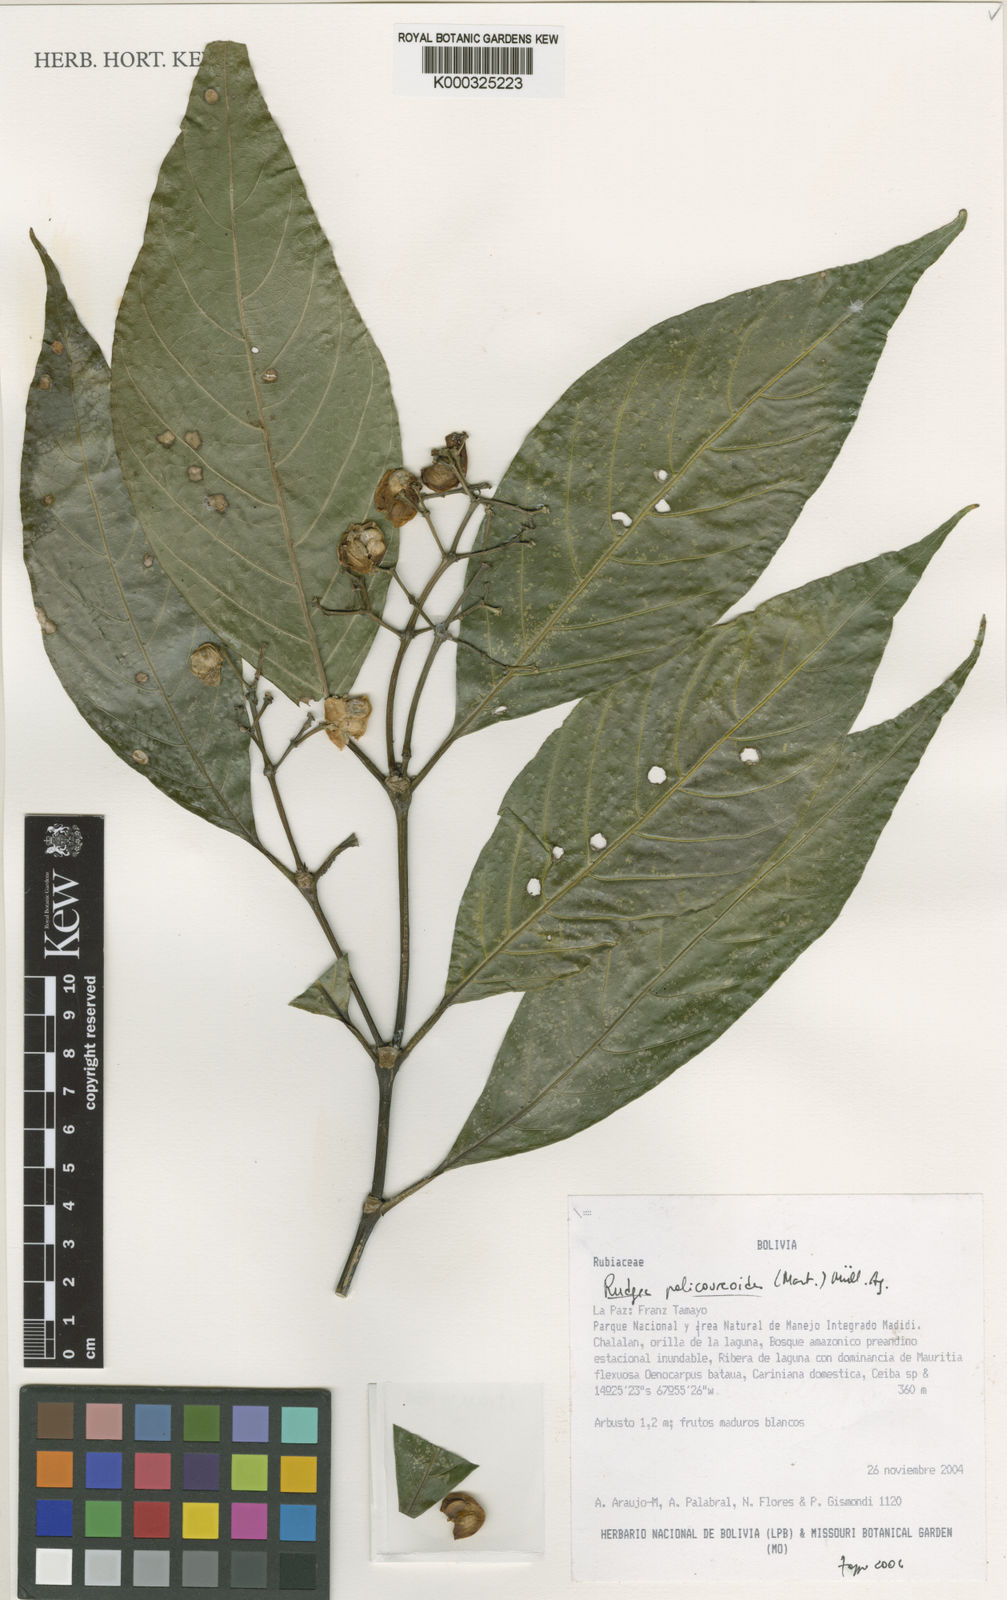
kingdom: Plantae
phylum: Tracheophyta
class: Magnoliopsida
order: Gentianales
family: Rubiaceae
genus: Rudgea
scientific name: Rudgea palicoureoides
